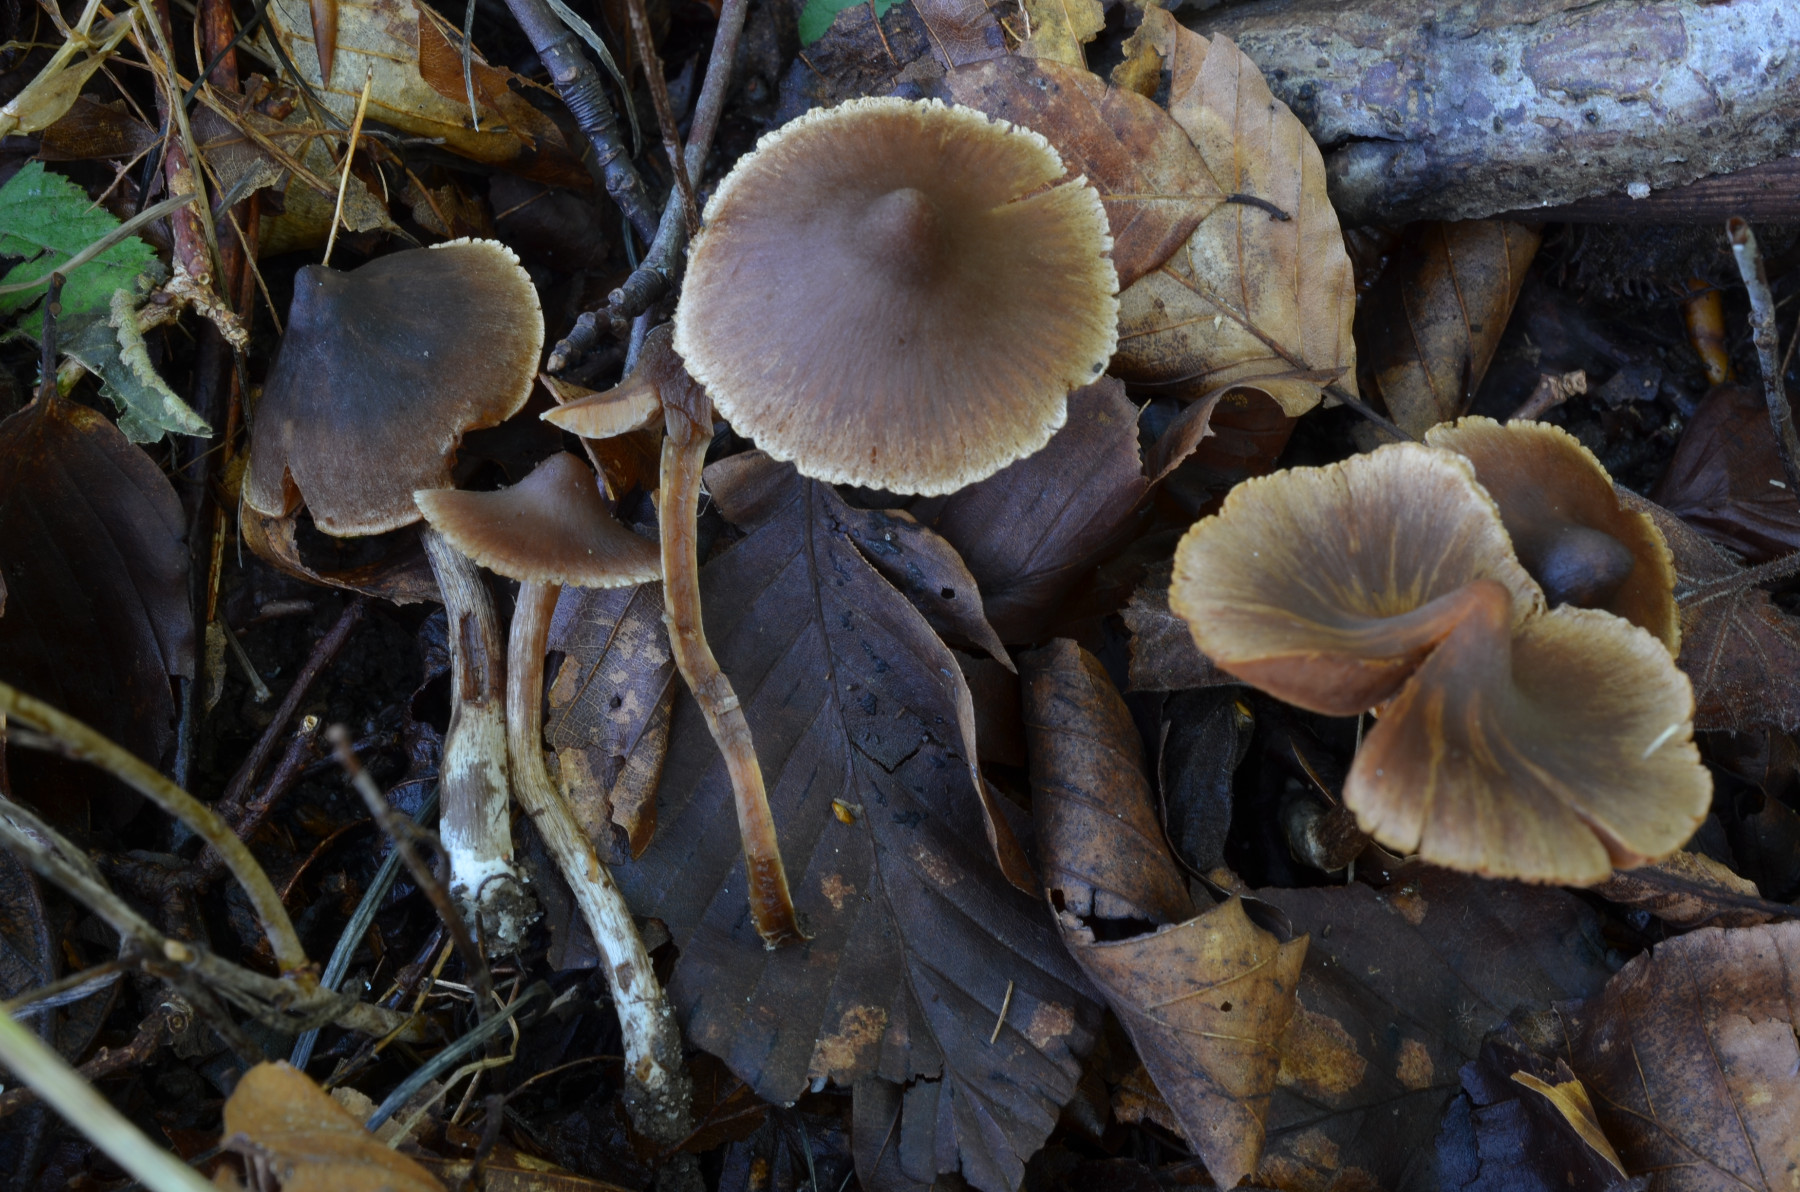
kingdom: Fungi
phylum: Basidiomycota
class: Agaricomycetes
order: Agaricales
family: Cortinariaceae
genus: Cortinarius
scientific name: Cortinarius flexibilifolius
